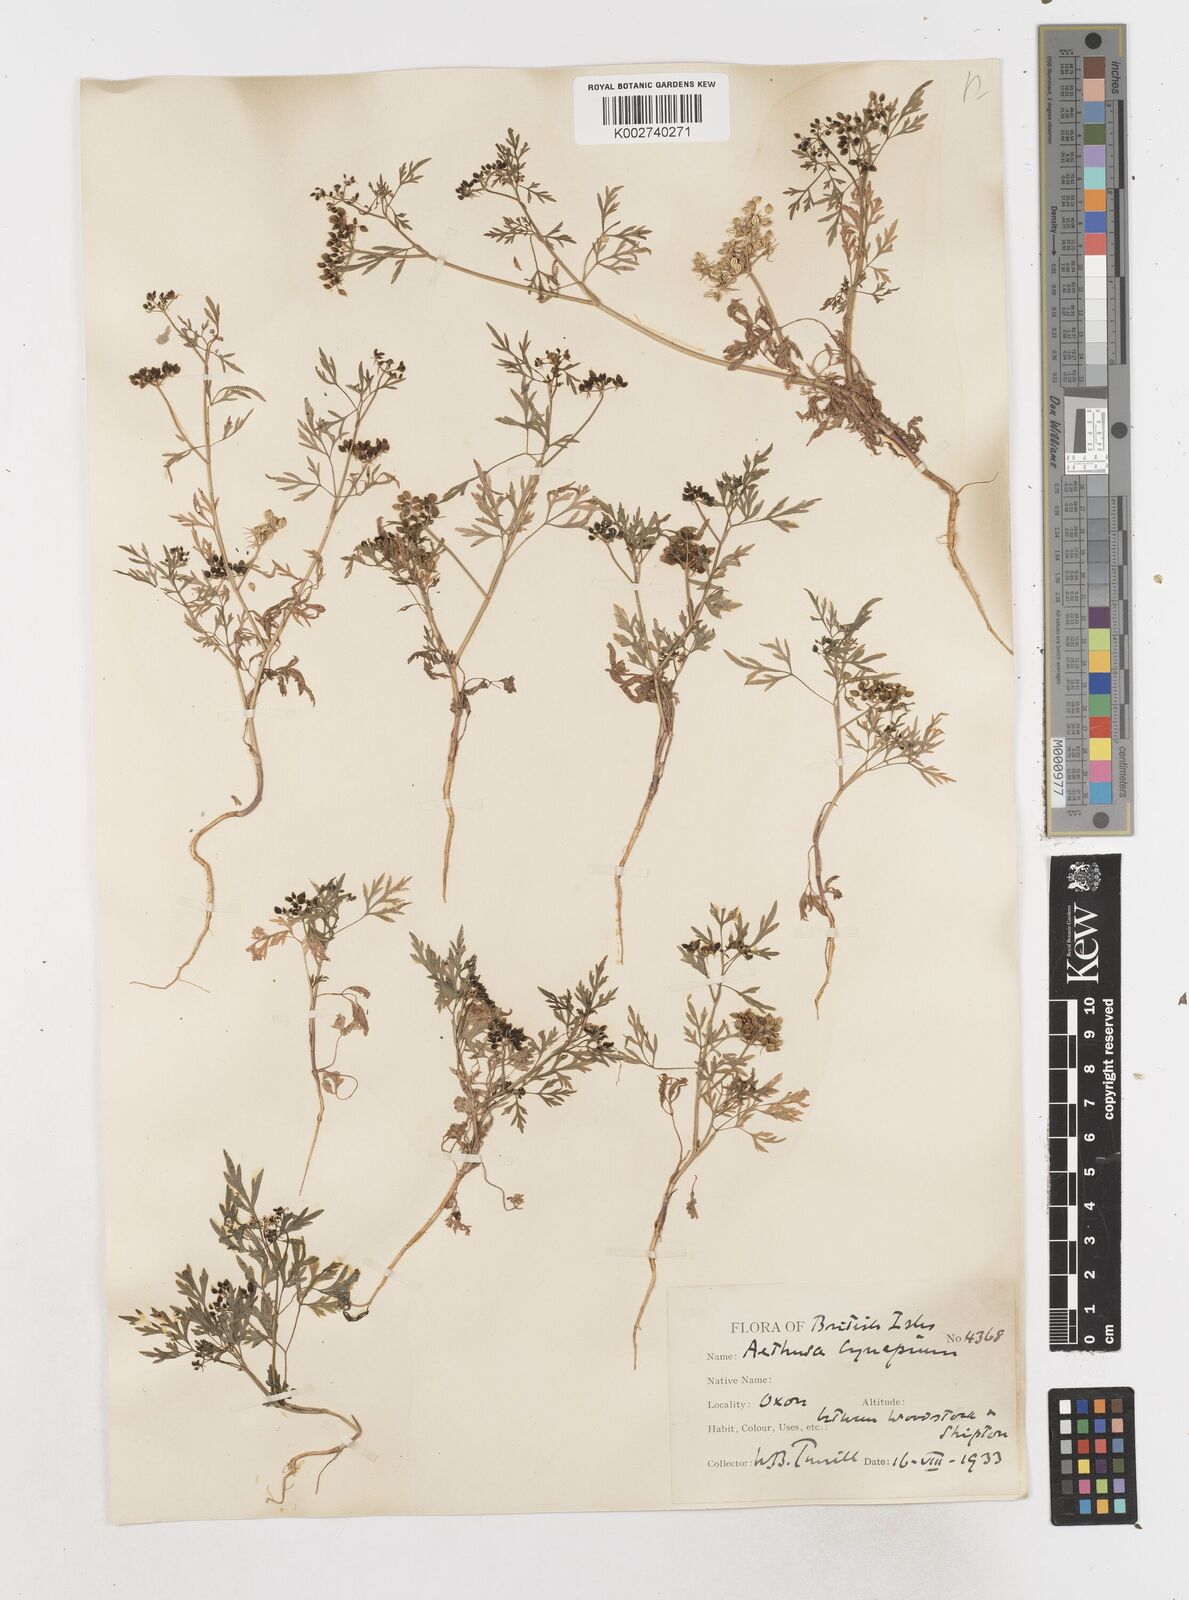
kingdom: Plantae
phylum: Tracheophyta
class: Magnoliopsida
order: Apiales
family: Apiaceae
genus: Aethusa
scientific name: Aethusa cynapium
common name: Fool's parsley
